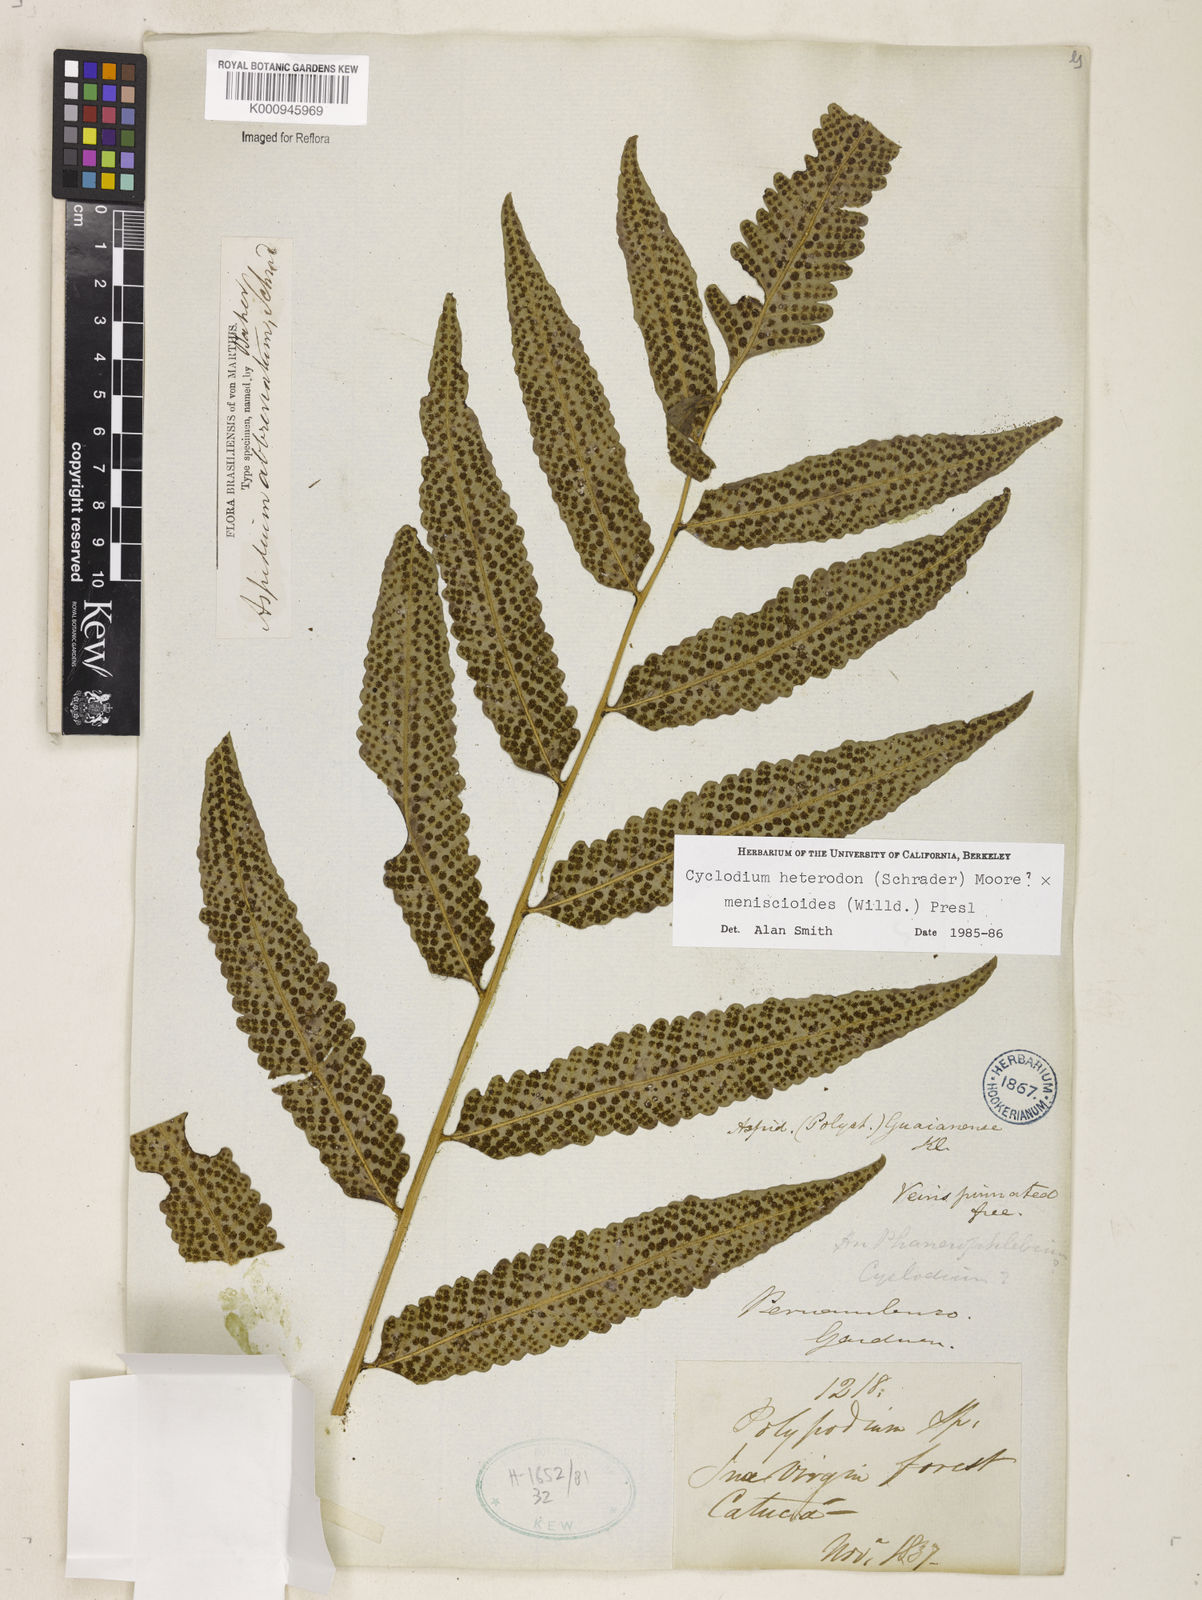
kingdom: Plantae
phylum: Tracheophyta
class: Polypodiopsida
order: Polypodiales
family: Dryopteridaceae
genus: Cyclodium
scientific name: Cyclodium meniscioides
